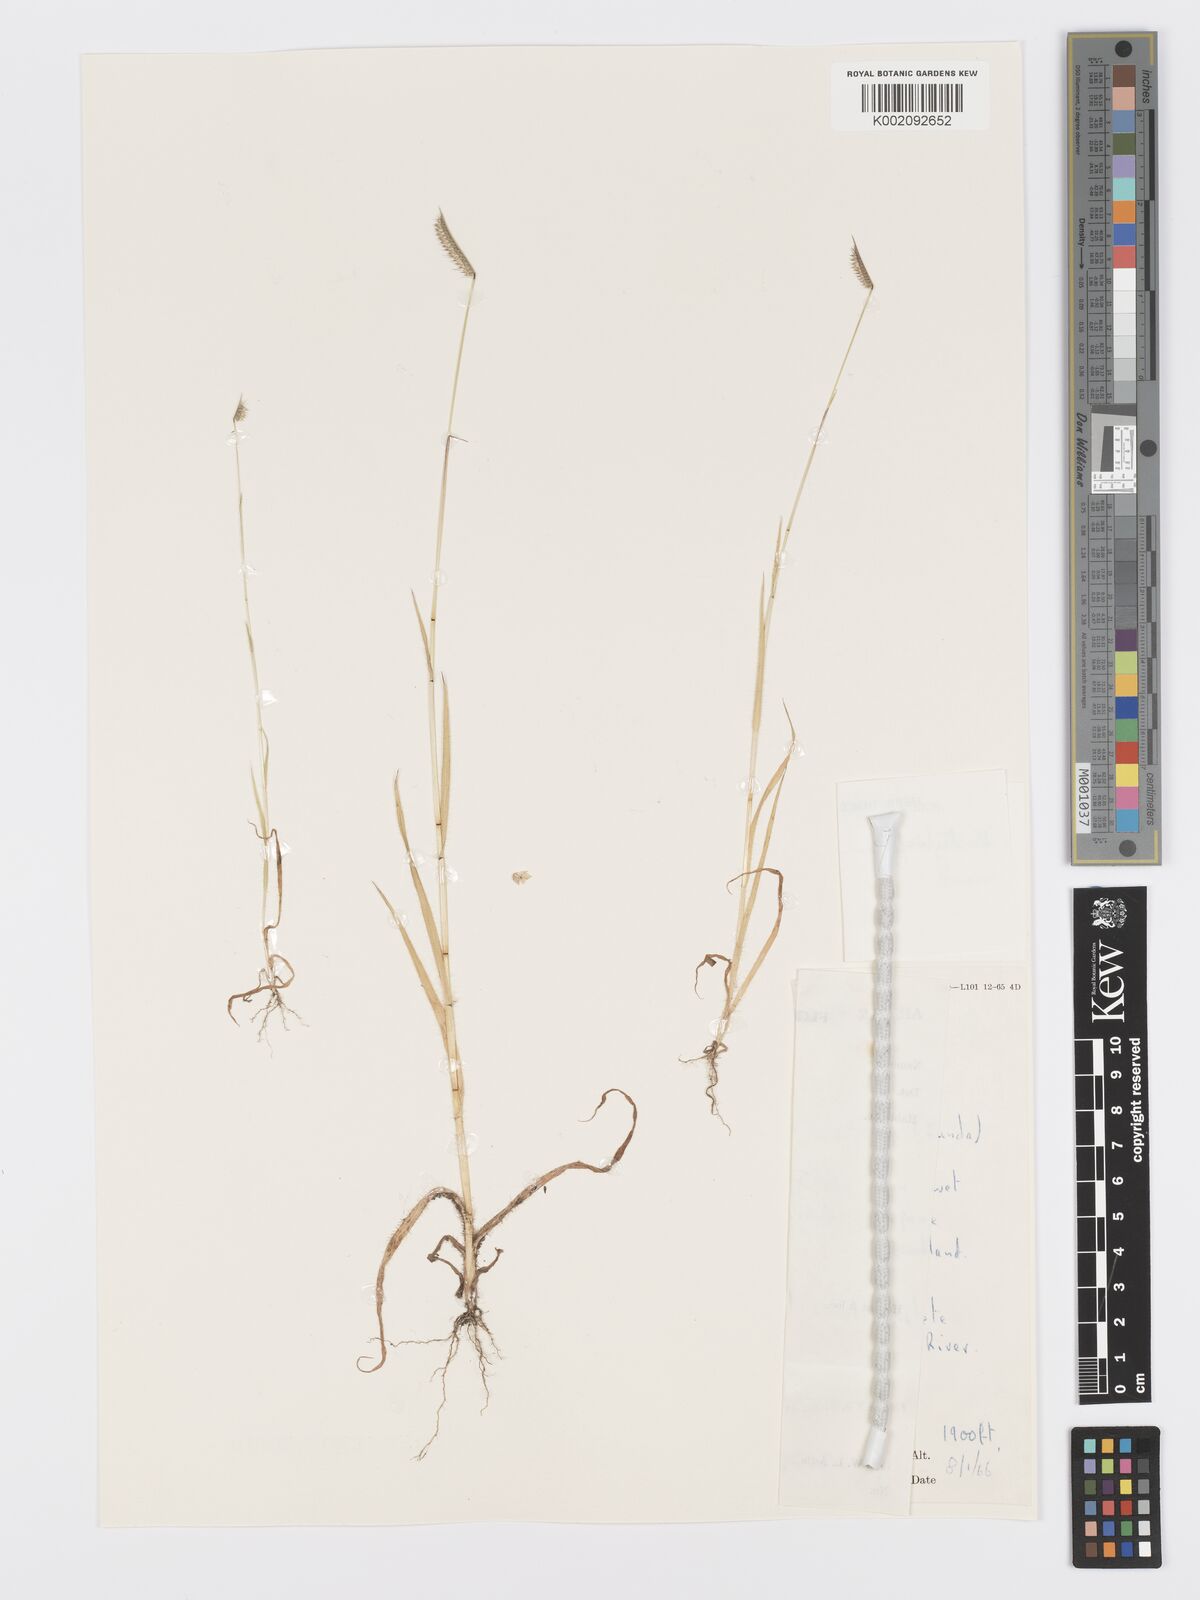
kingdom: Plantae
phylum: Tracheophyta
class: Liliopsida
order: Poales
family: Poaceae
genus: Dactyloctenium
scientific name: Dactyloctenium giganteum
